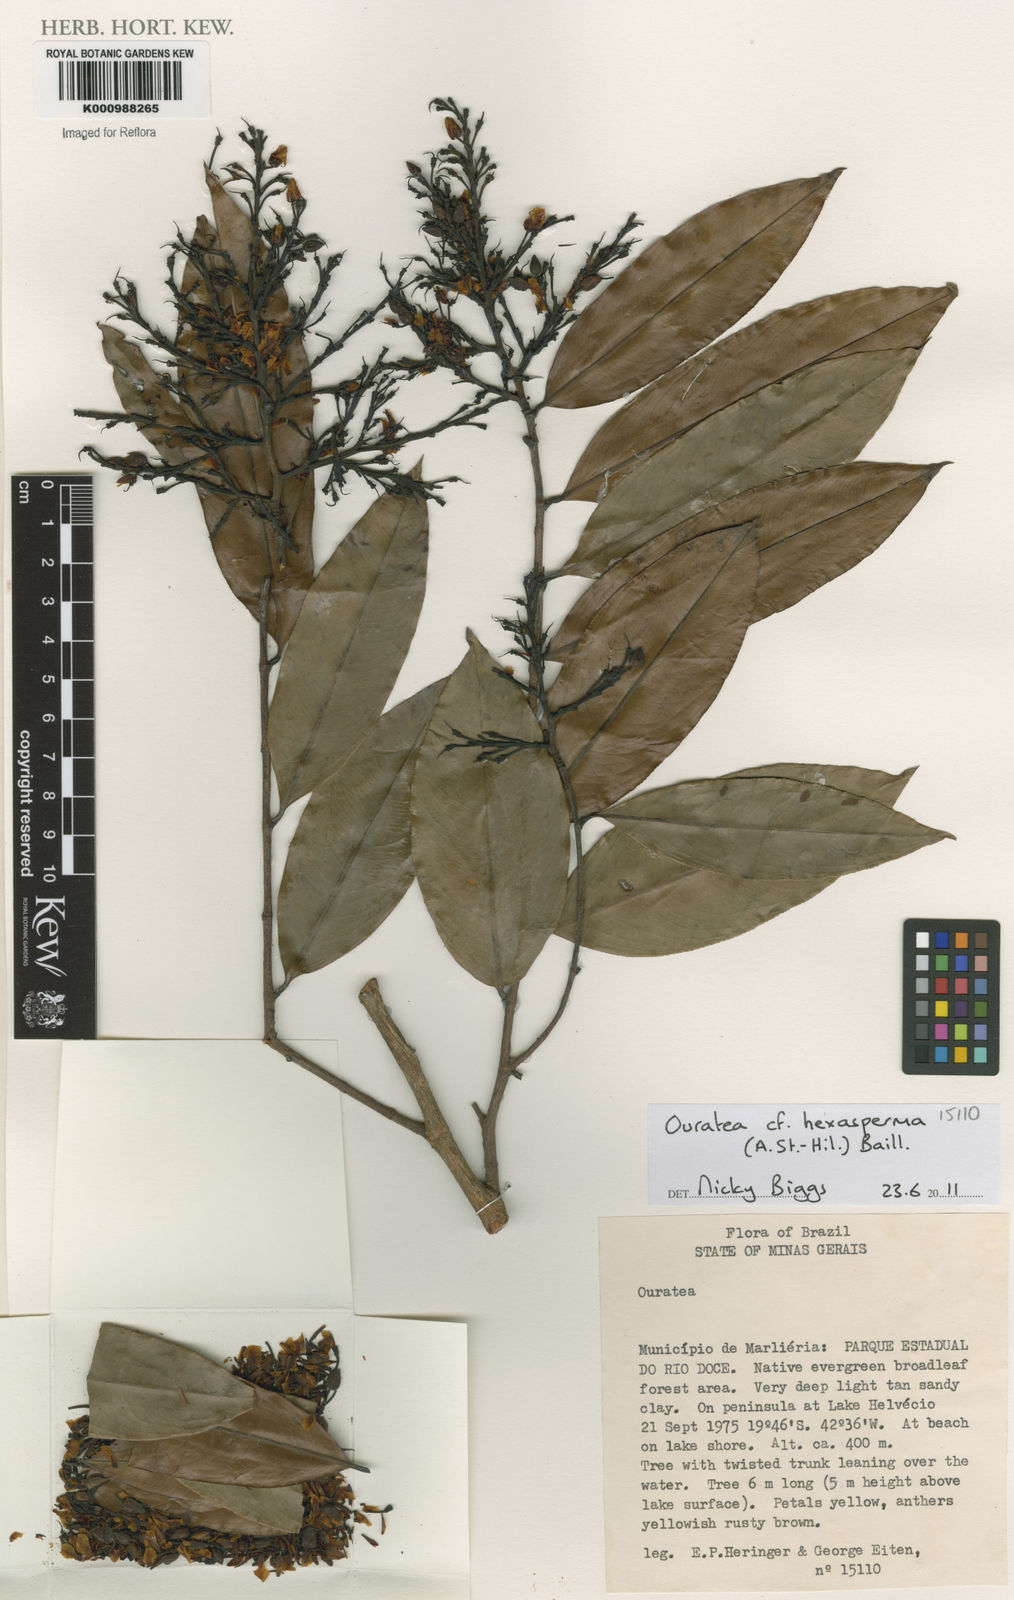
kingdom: Plantae
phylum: Tracheophyta
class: Magnoliopsida
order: Malpighiales
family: Ochnaceae
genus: Ouratea
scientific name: Ouratea hexasperma
